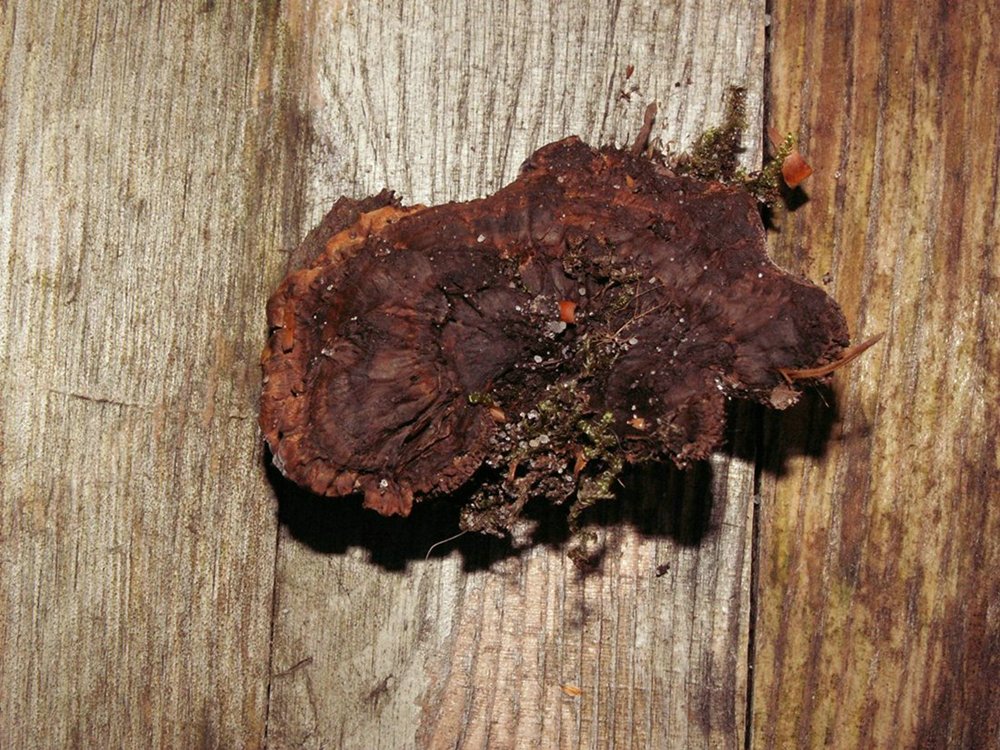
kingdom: Fungi
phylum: Basidiomycota
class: Agaricomycetes
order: Thelephorales
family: Bankeraceae
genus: Hydnellum
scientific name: Hydnellum concrescens
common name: bæltet korkpigsvamp
